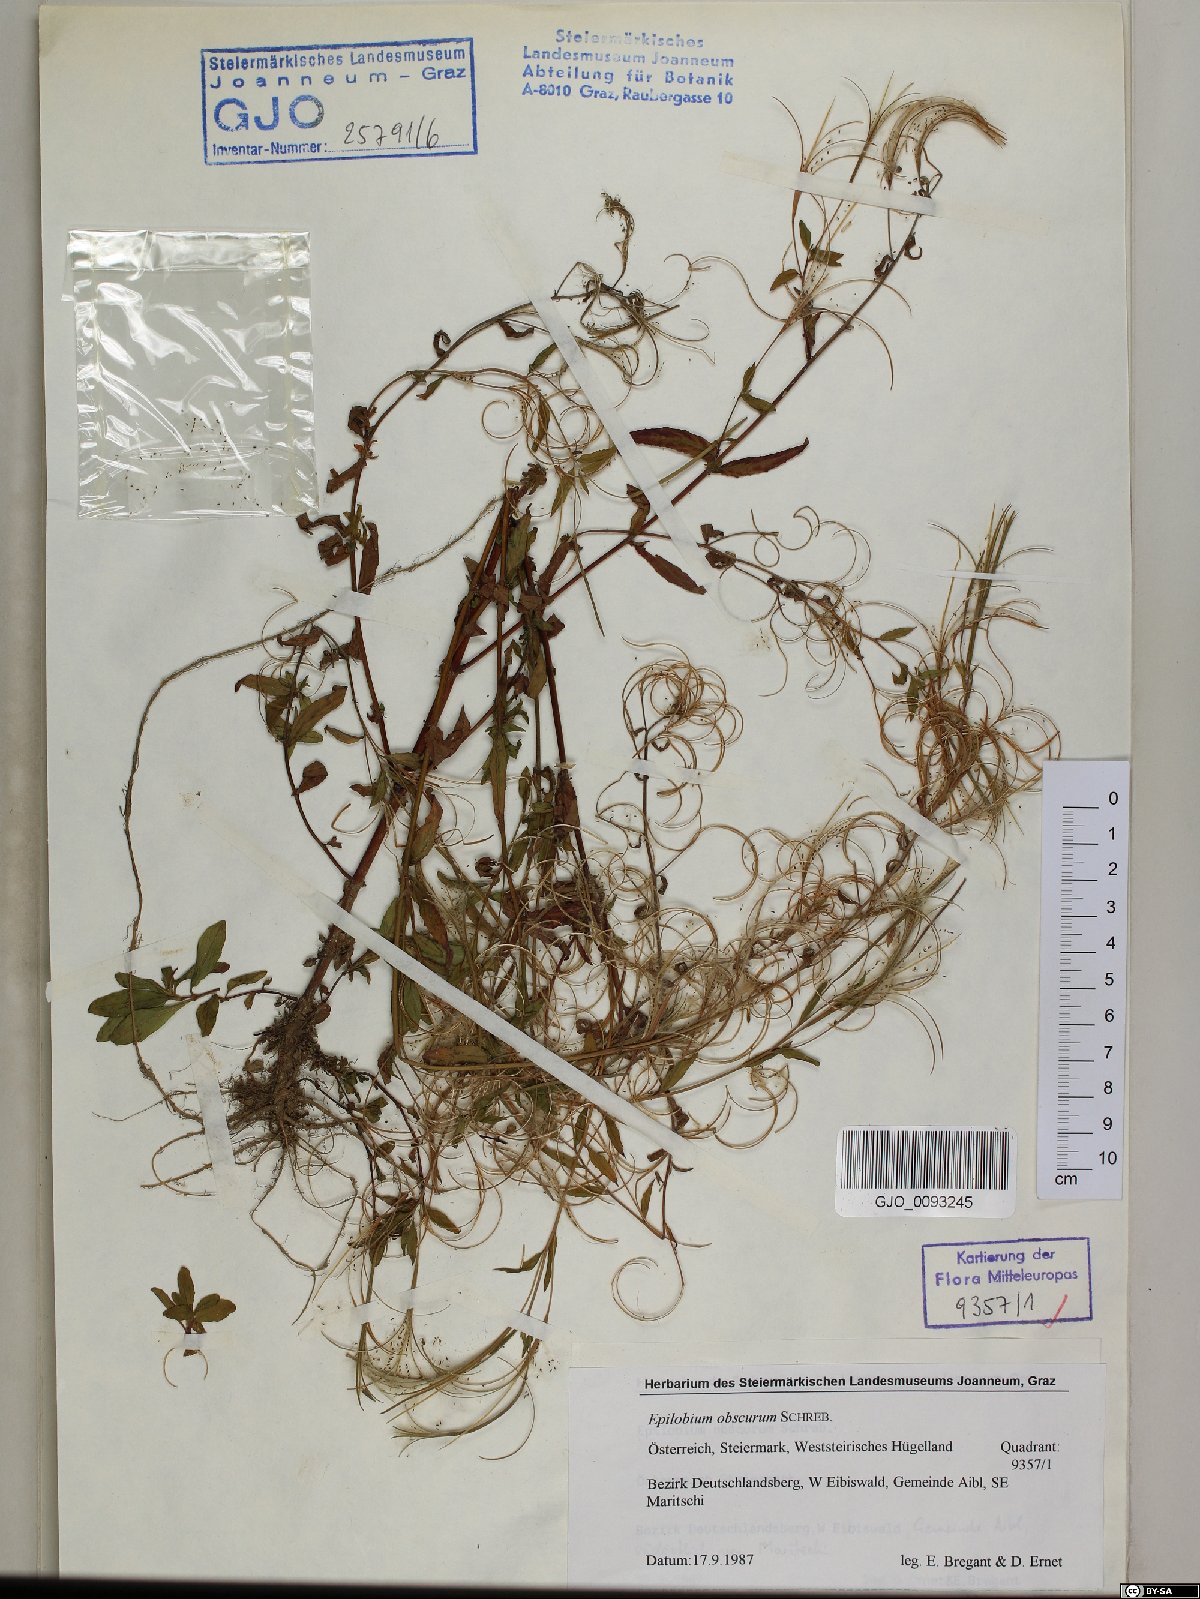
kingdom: Plantae
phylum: Tracheophyta
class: Magnoliopsida
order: Myrtales
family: Onagraceae
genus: Epilobium
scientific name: Epilobium obscurum
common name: Short-fruited willowherb
